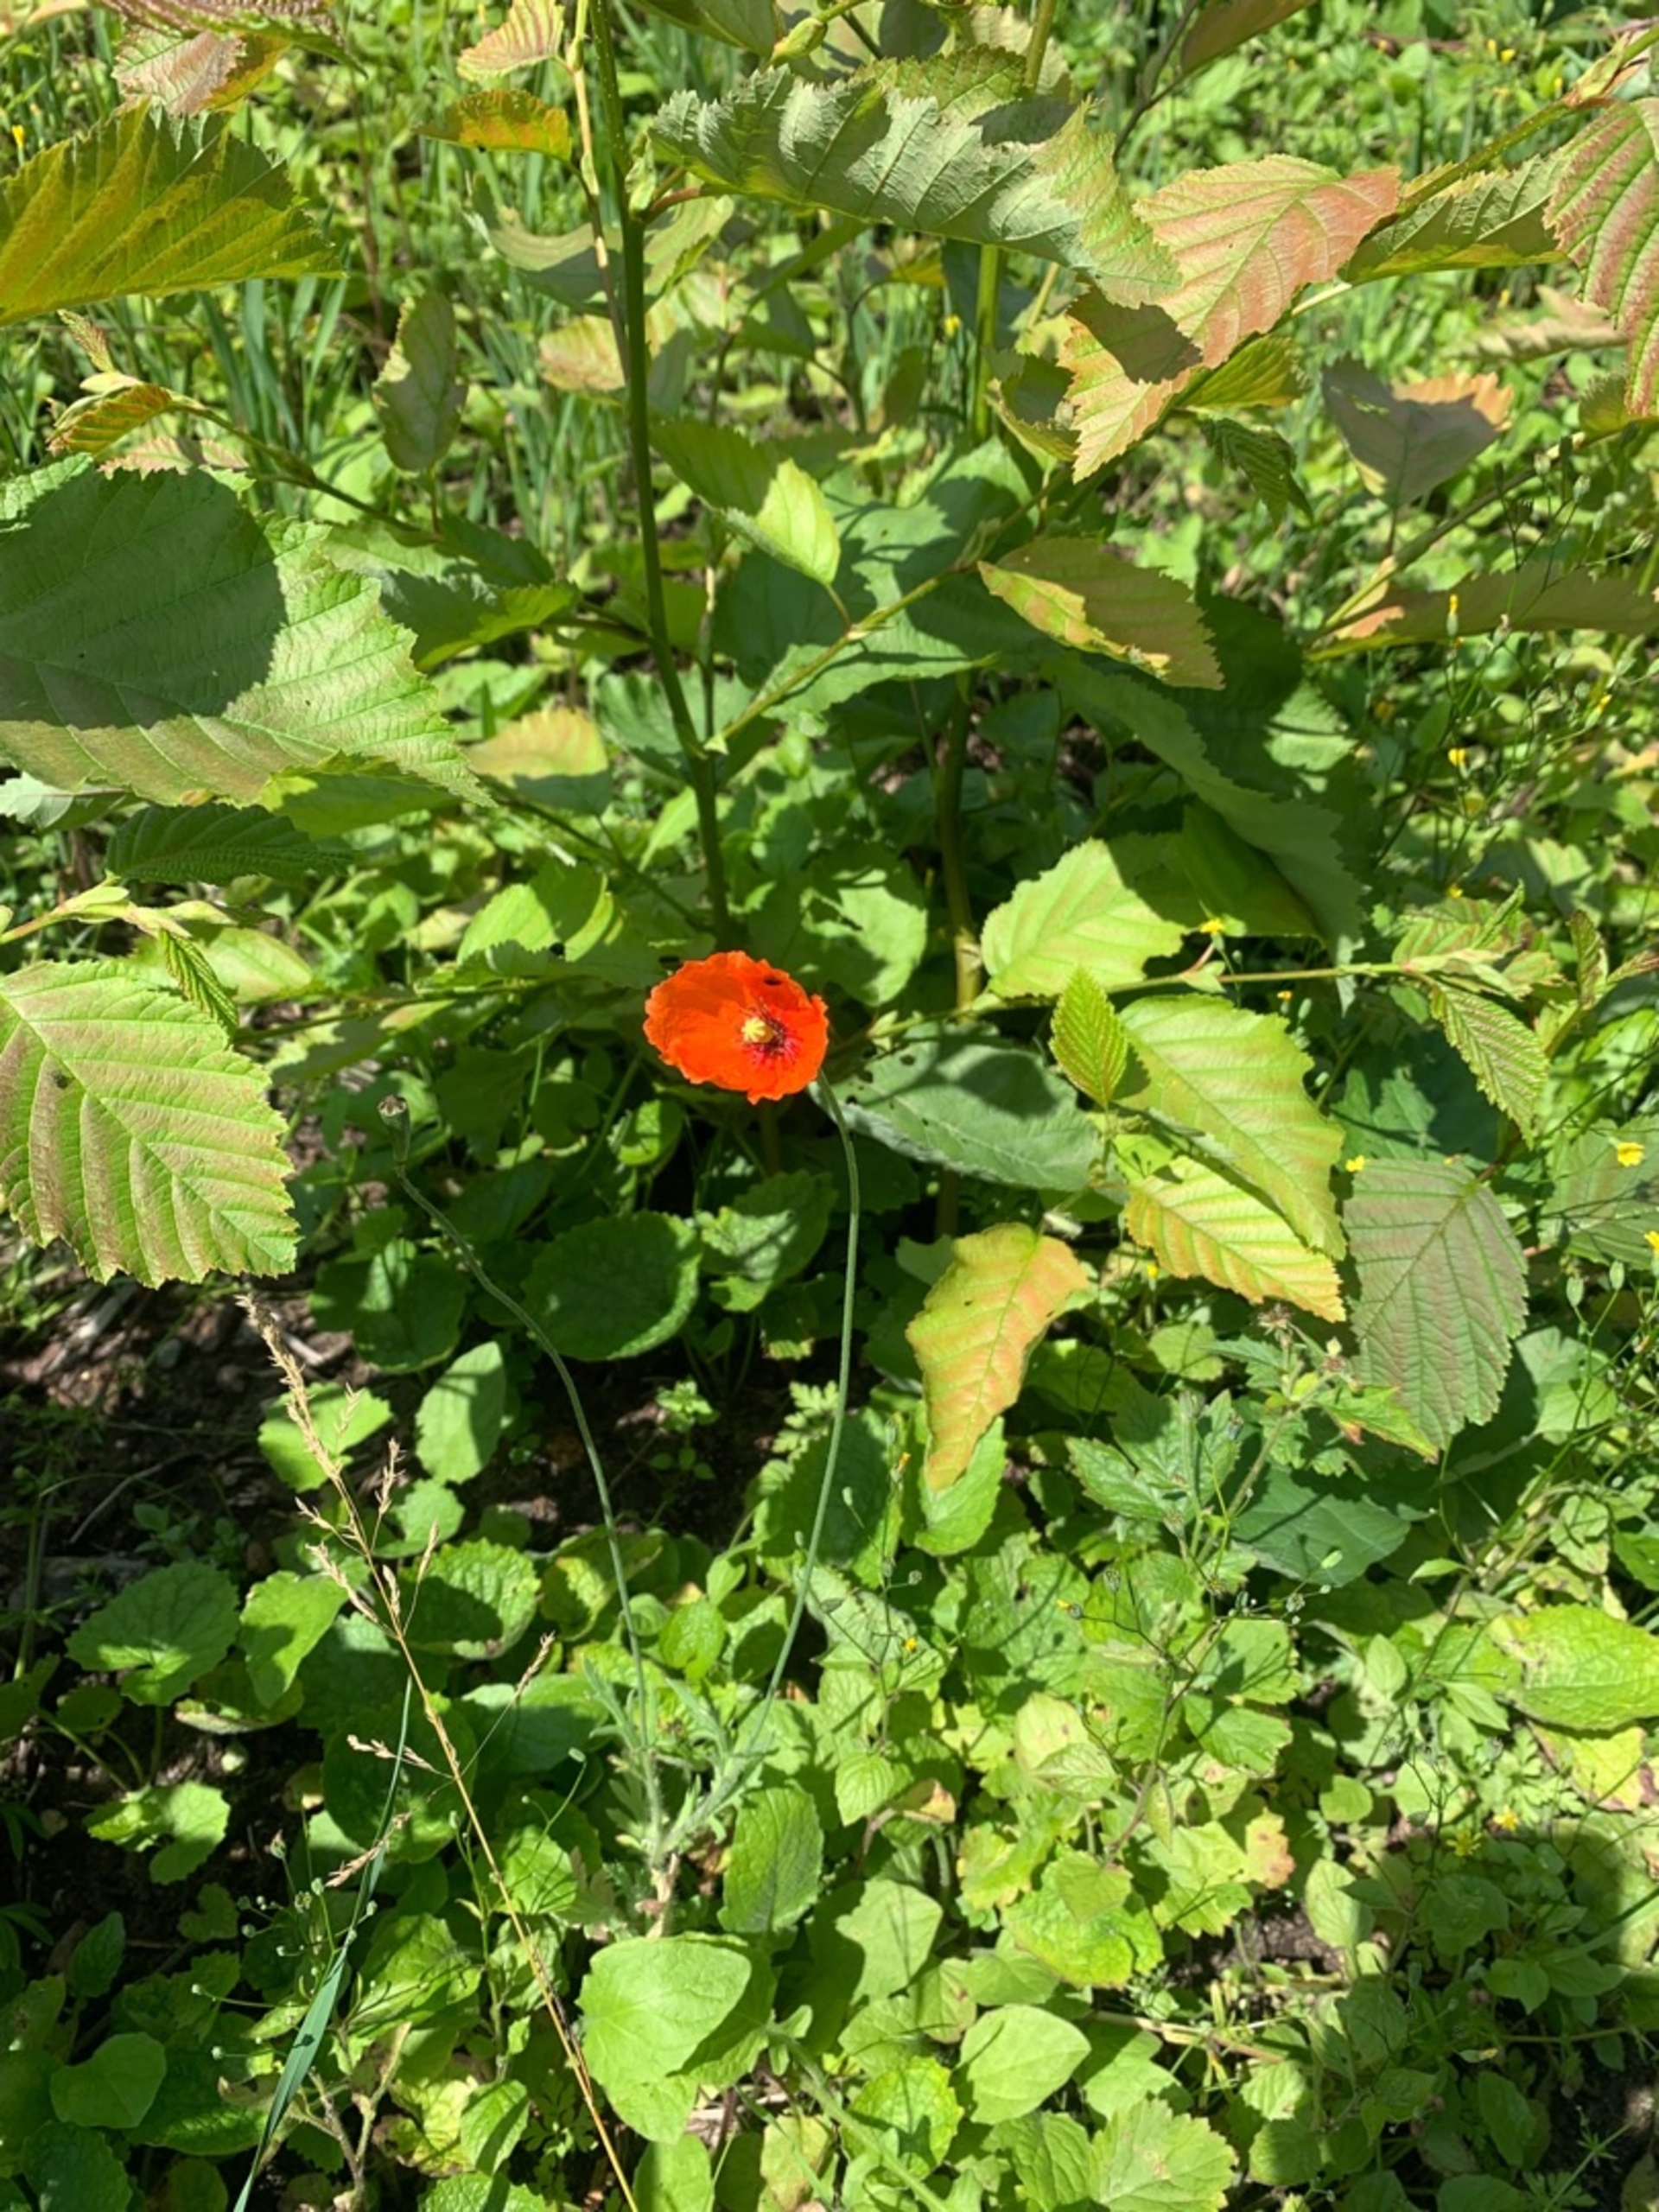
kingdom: Plantae
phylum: Tracheophyta
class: Magnoliopsida
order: Ranunculales
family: Papaveraceae
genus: Papaver
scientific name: Papaver dubium
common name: Gærde-valmue
